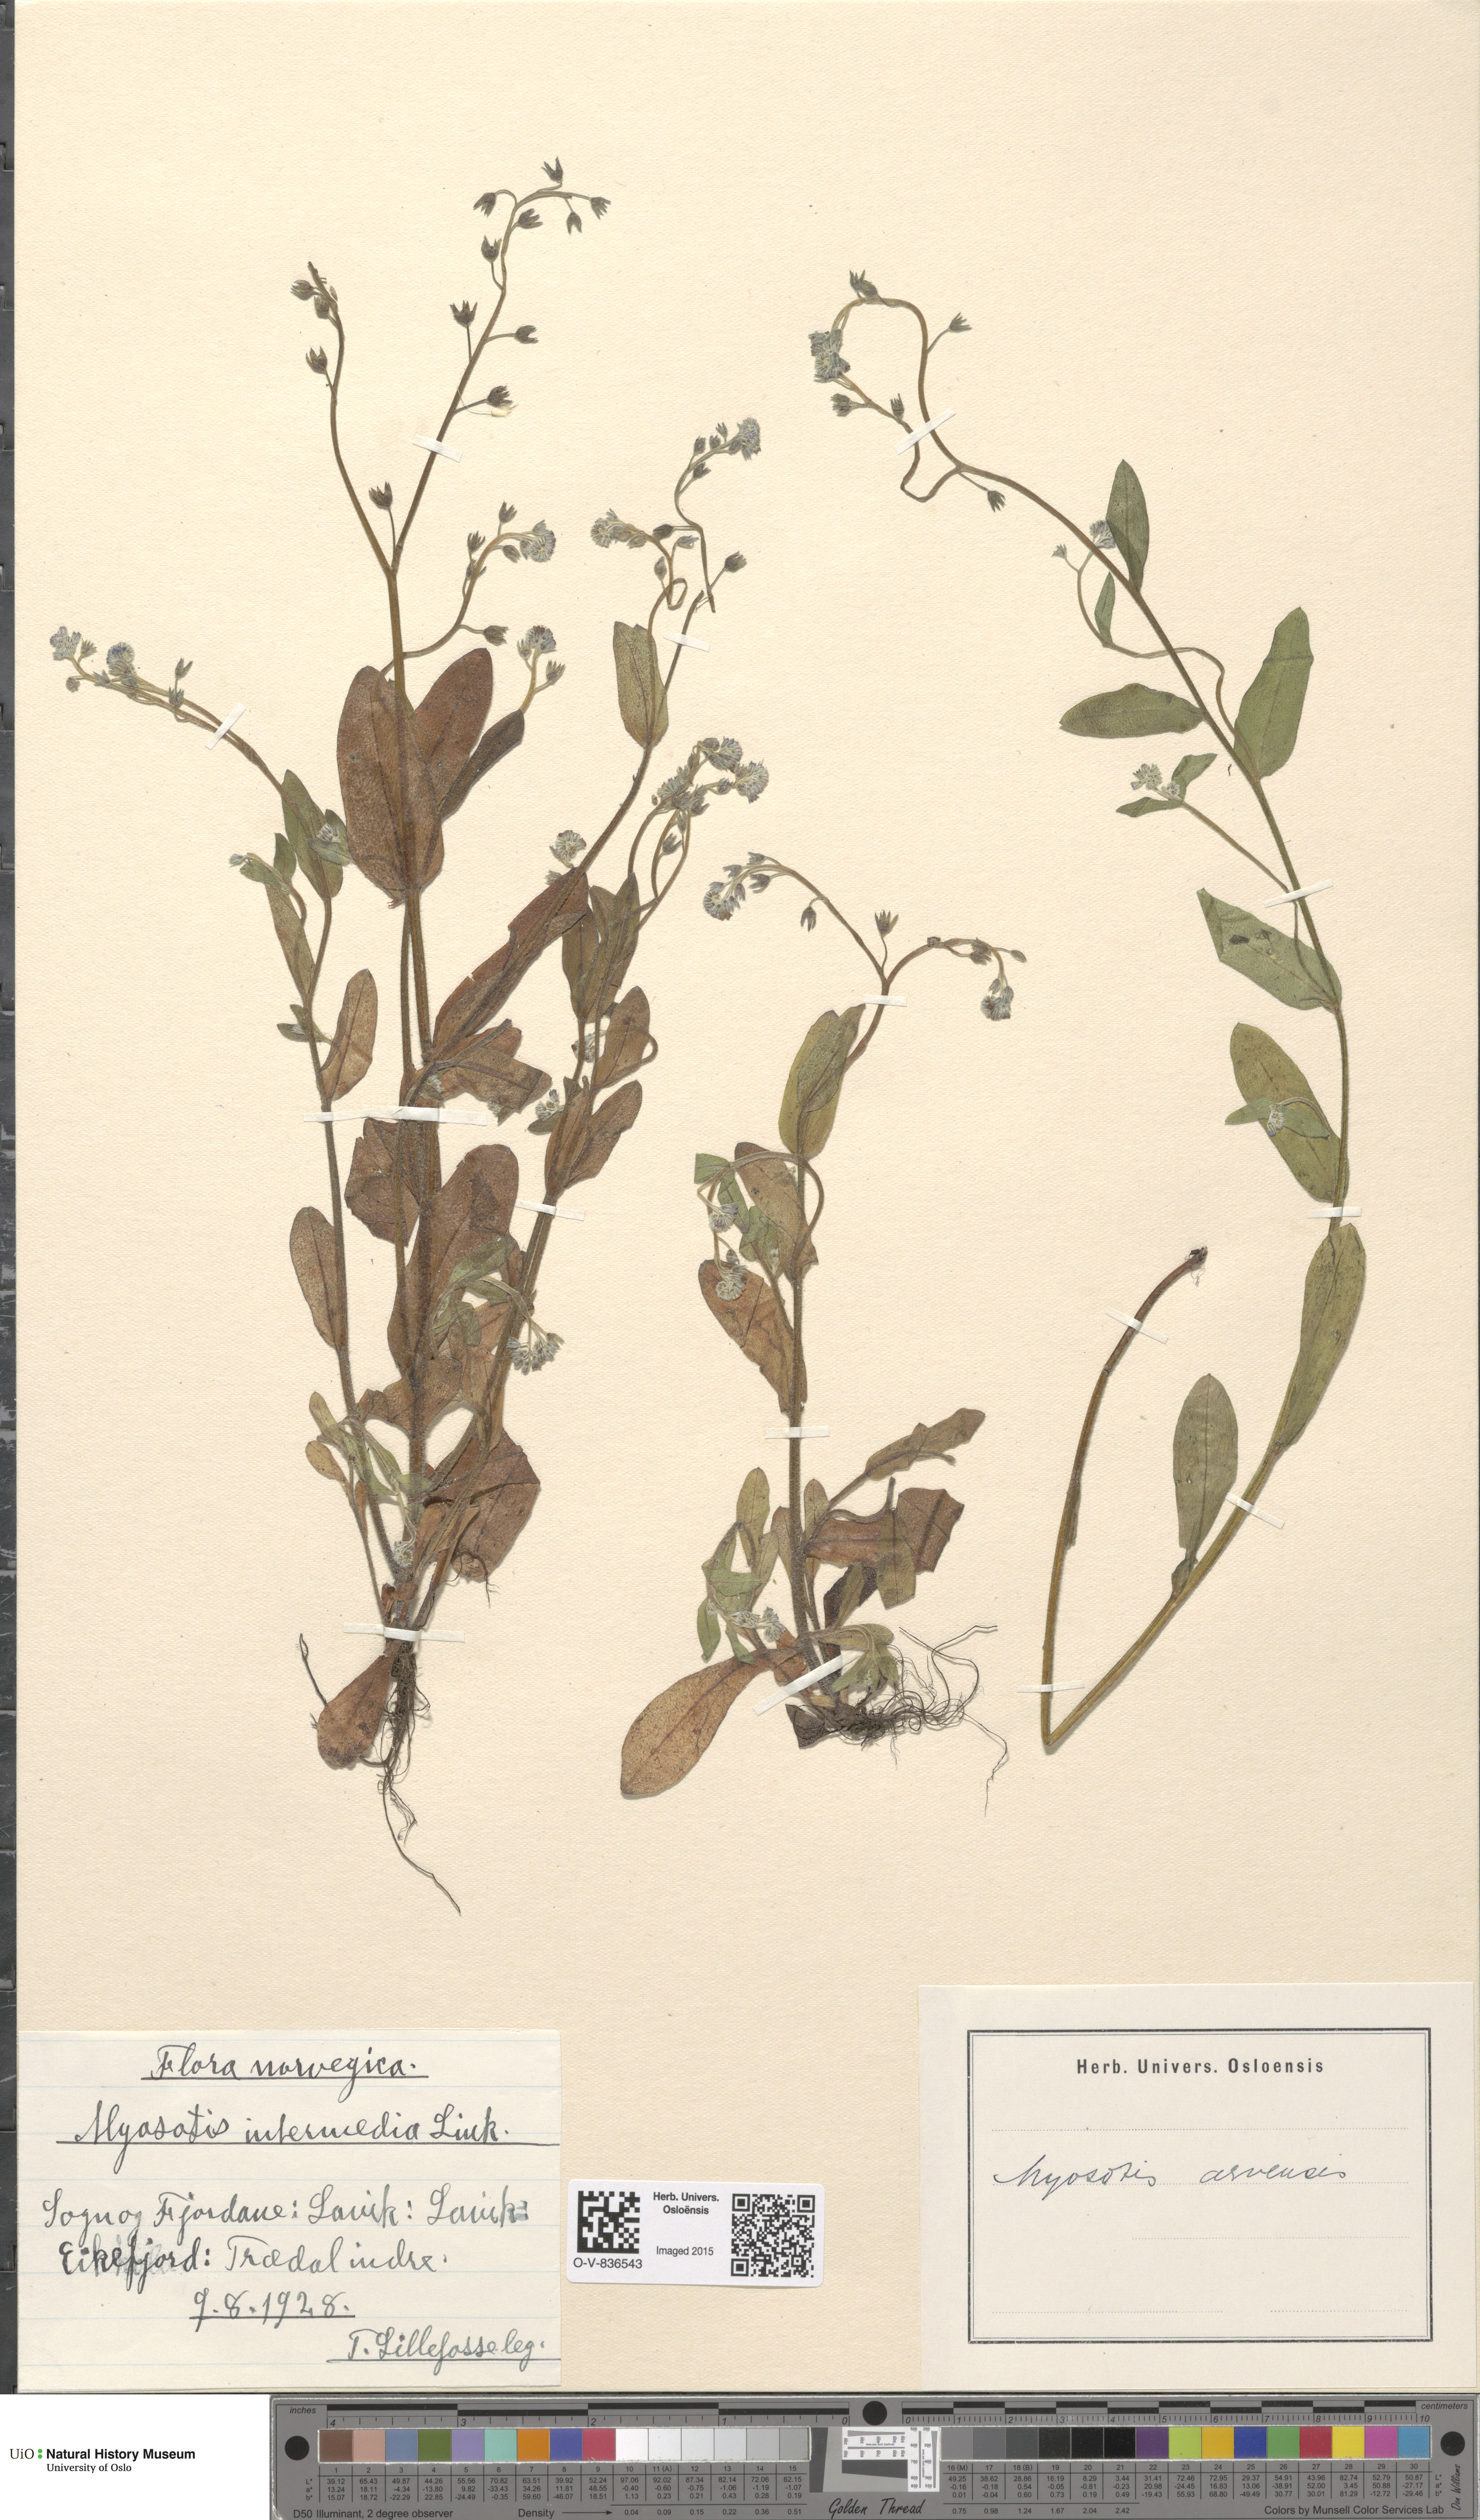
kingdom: Plantae
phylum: Tracheophyta
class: Magnoliopsida
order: Boraginales
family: Boraginaceae
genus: Myosotis
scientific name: Myosotis arvensis
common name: Field forget-me-not
